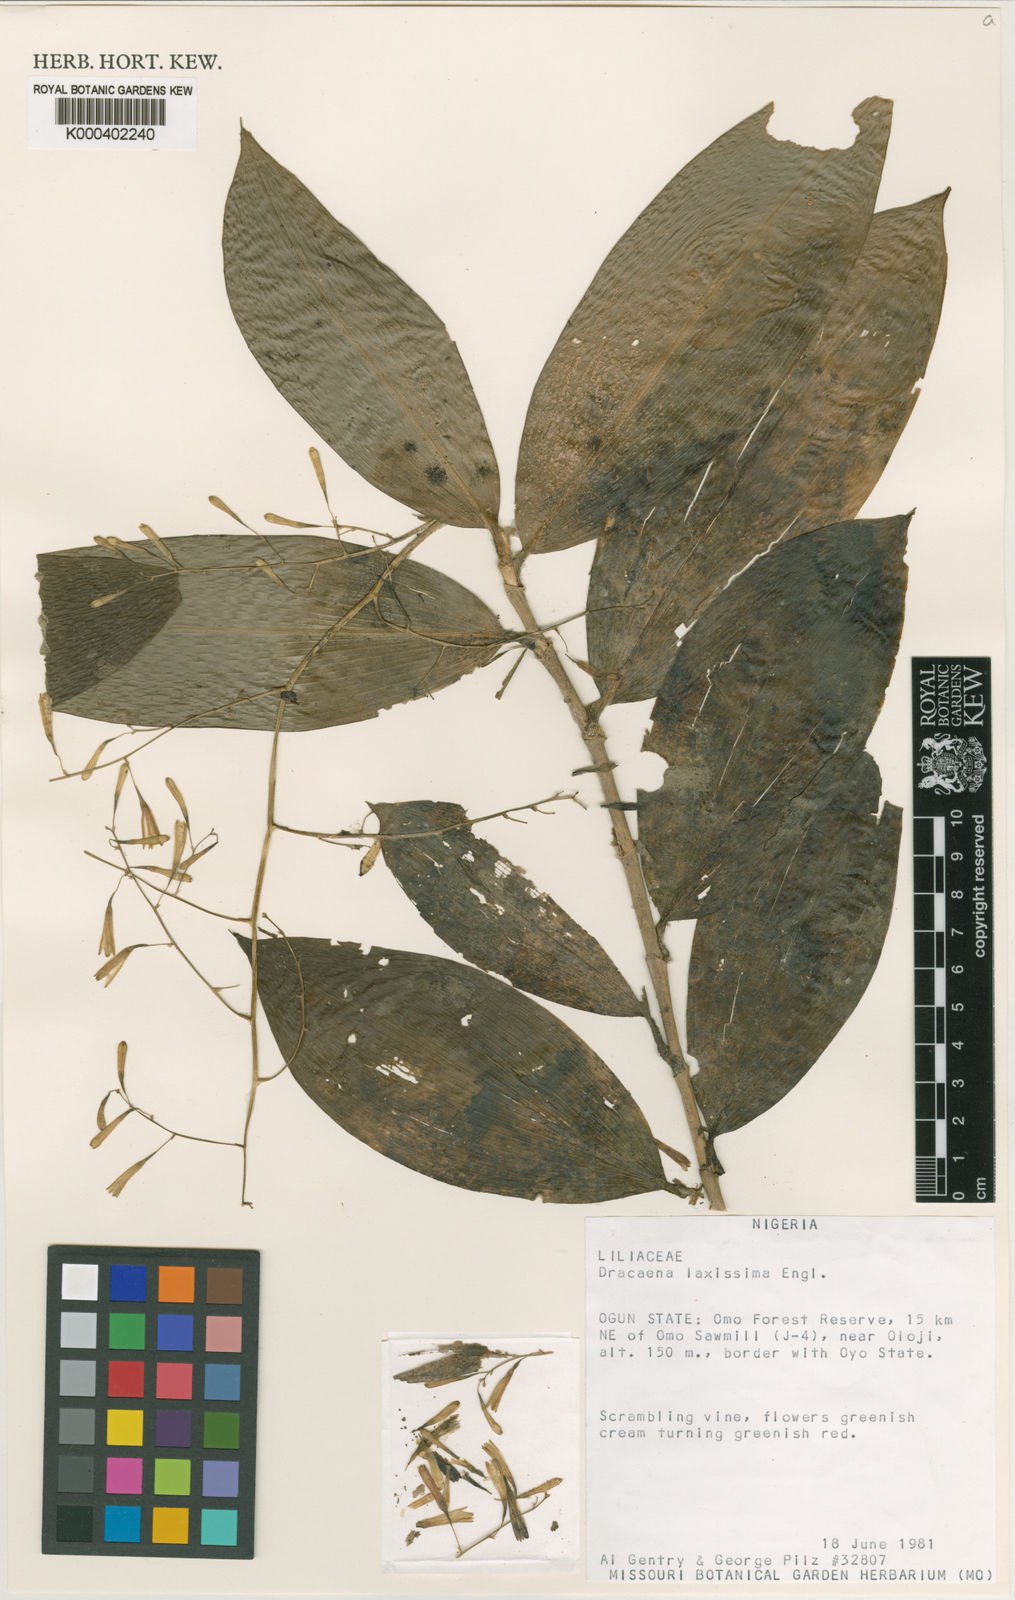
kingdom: Plantae
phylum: Tracheophyta
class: Liliopsida
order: Asparagales
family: Asparagaceae
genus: Dracaena
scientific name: Dracaena laxissima
